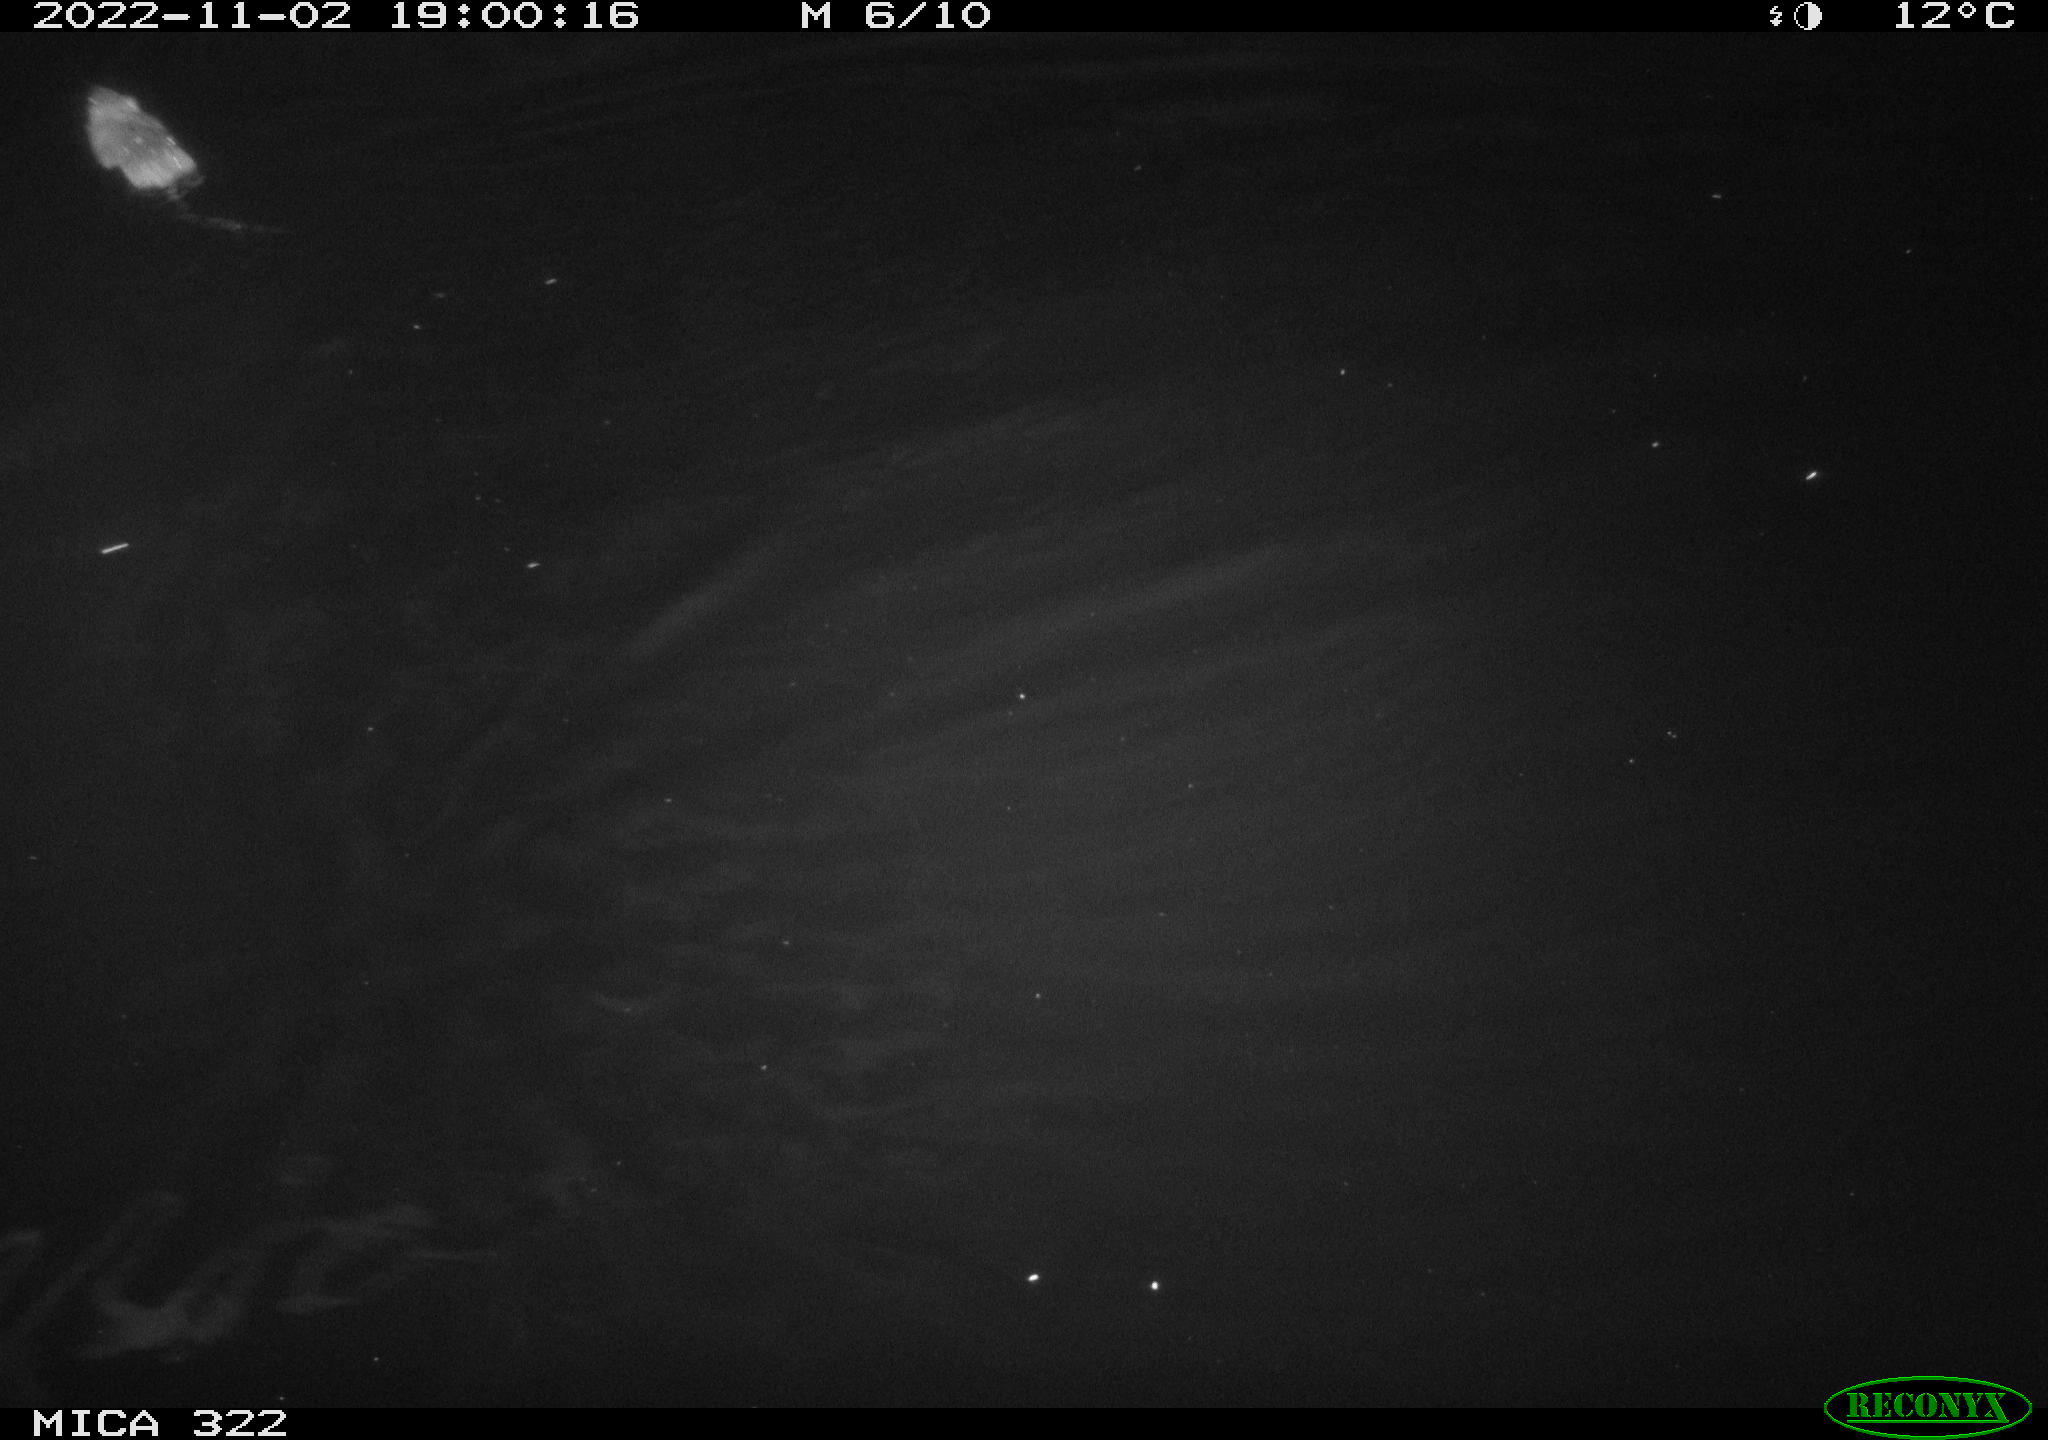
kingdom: Animalia
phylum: Chordata
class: Mammalia
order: Rodentia
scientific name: Rodentia
